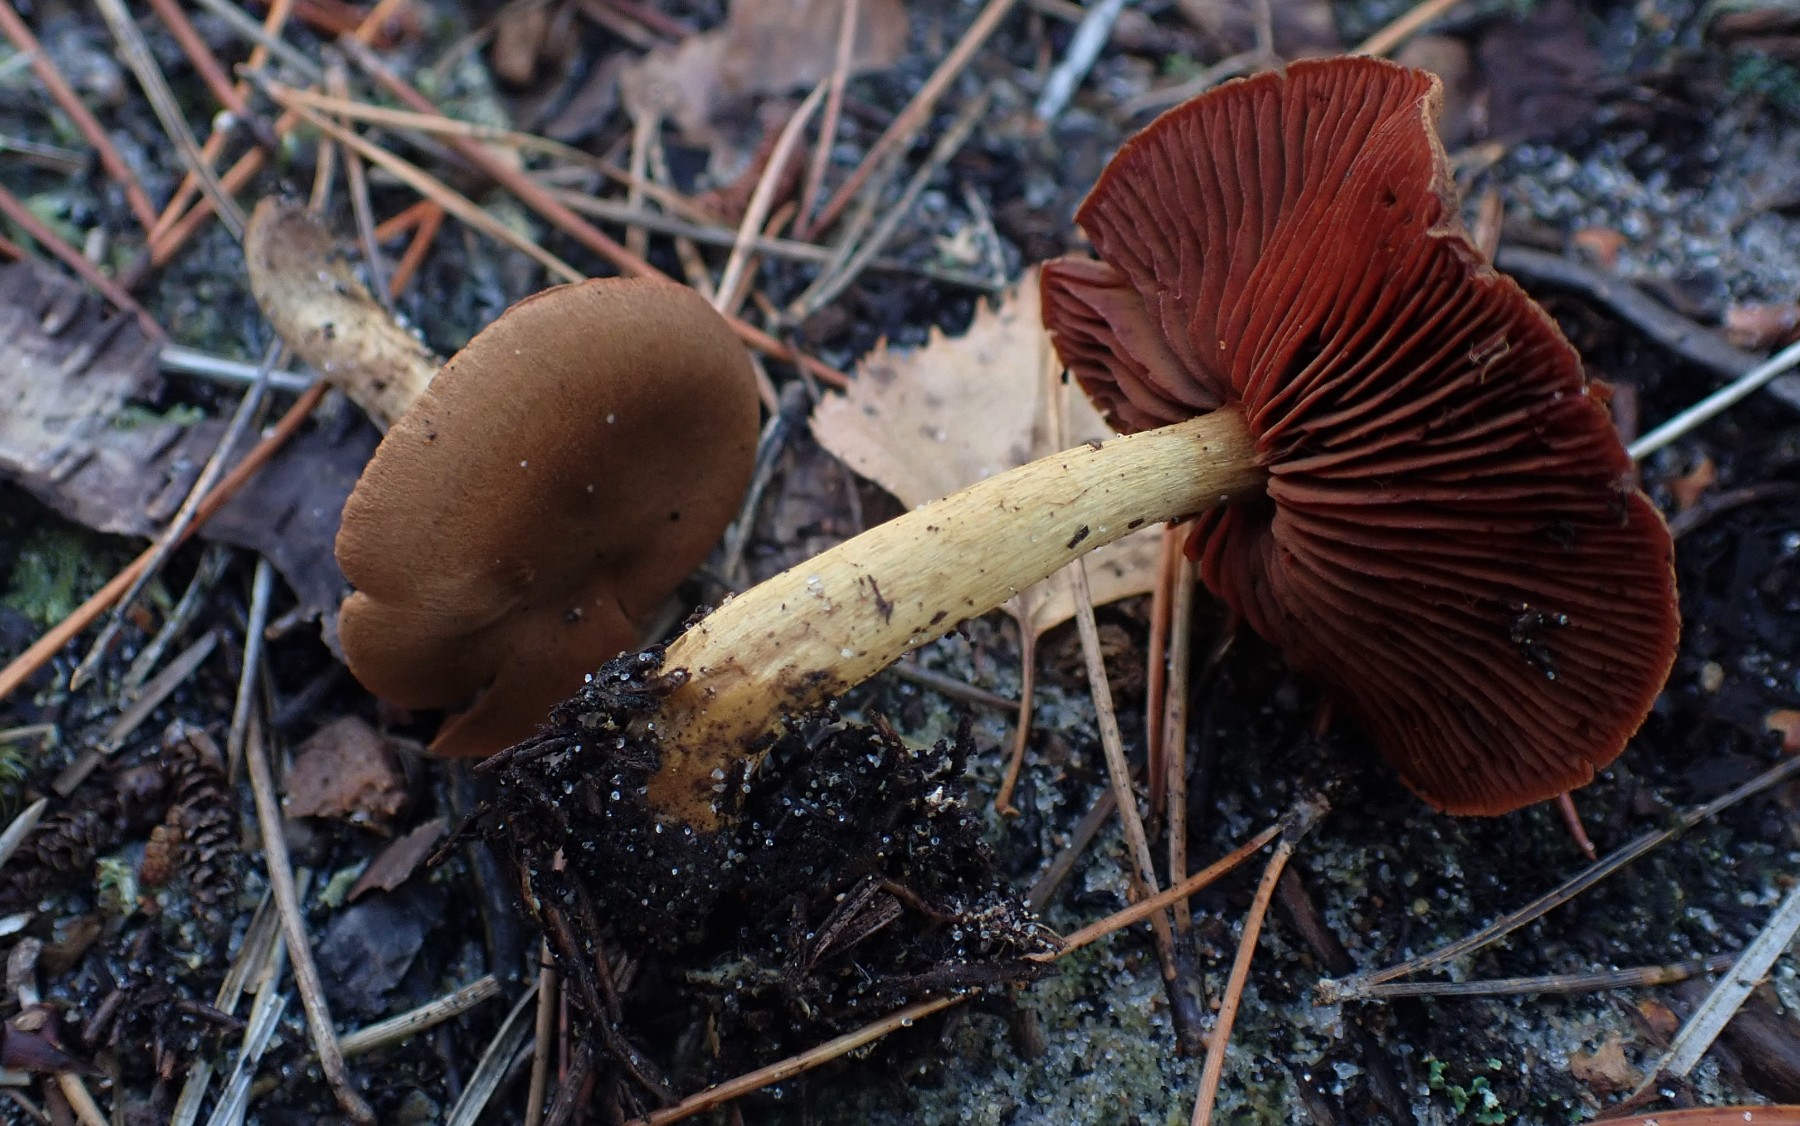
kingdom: Fungi
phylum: Basidiomycota
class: Agaricomycetes
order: Agaricales
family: Cortinariaceae
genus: Cortinarius
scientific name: Cortinarius
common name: cinnoberbladet slørhat
